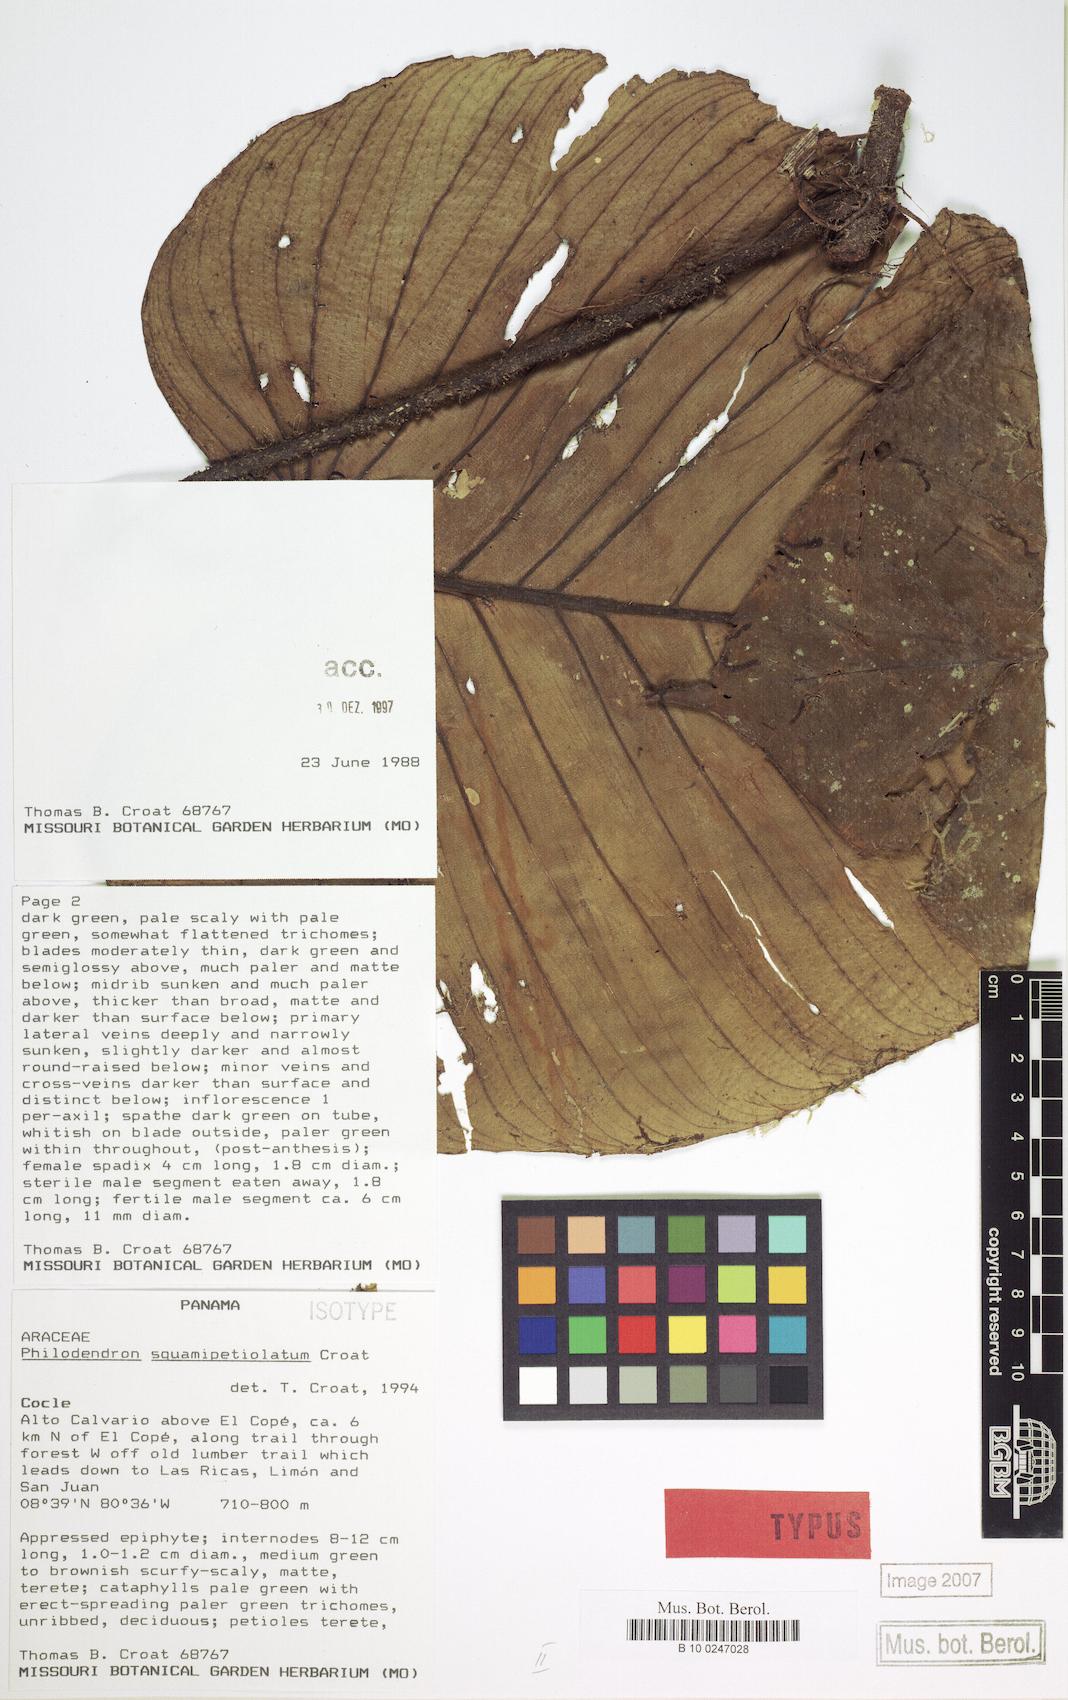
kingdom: Plantae
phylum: Tracheophyta
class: Liliopsida
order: Alismatales
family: Araceae
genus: Philodendron
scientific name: Philodendron squamipetiolatum
